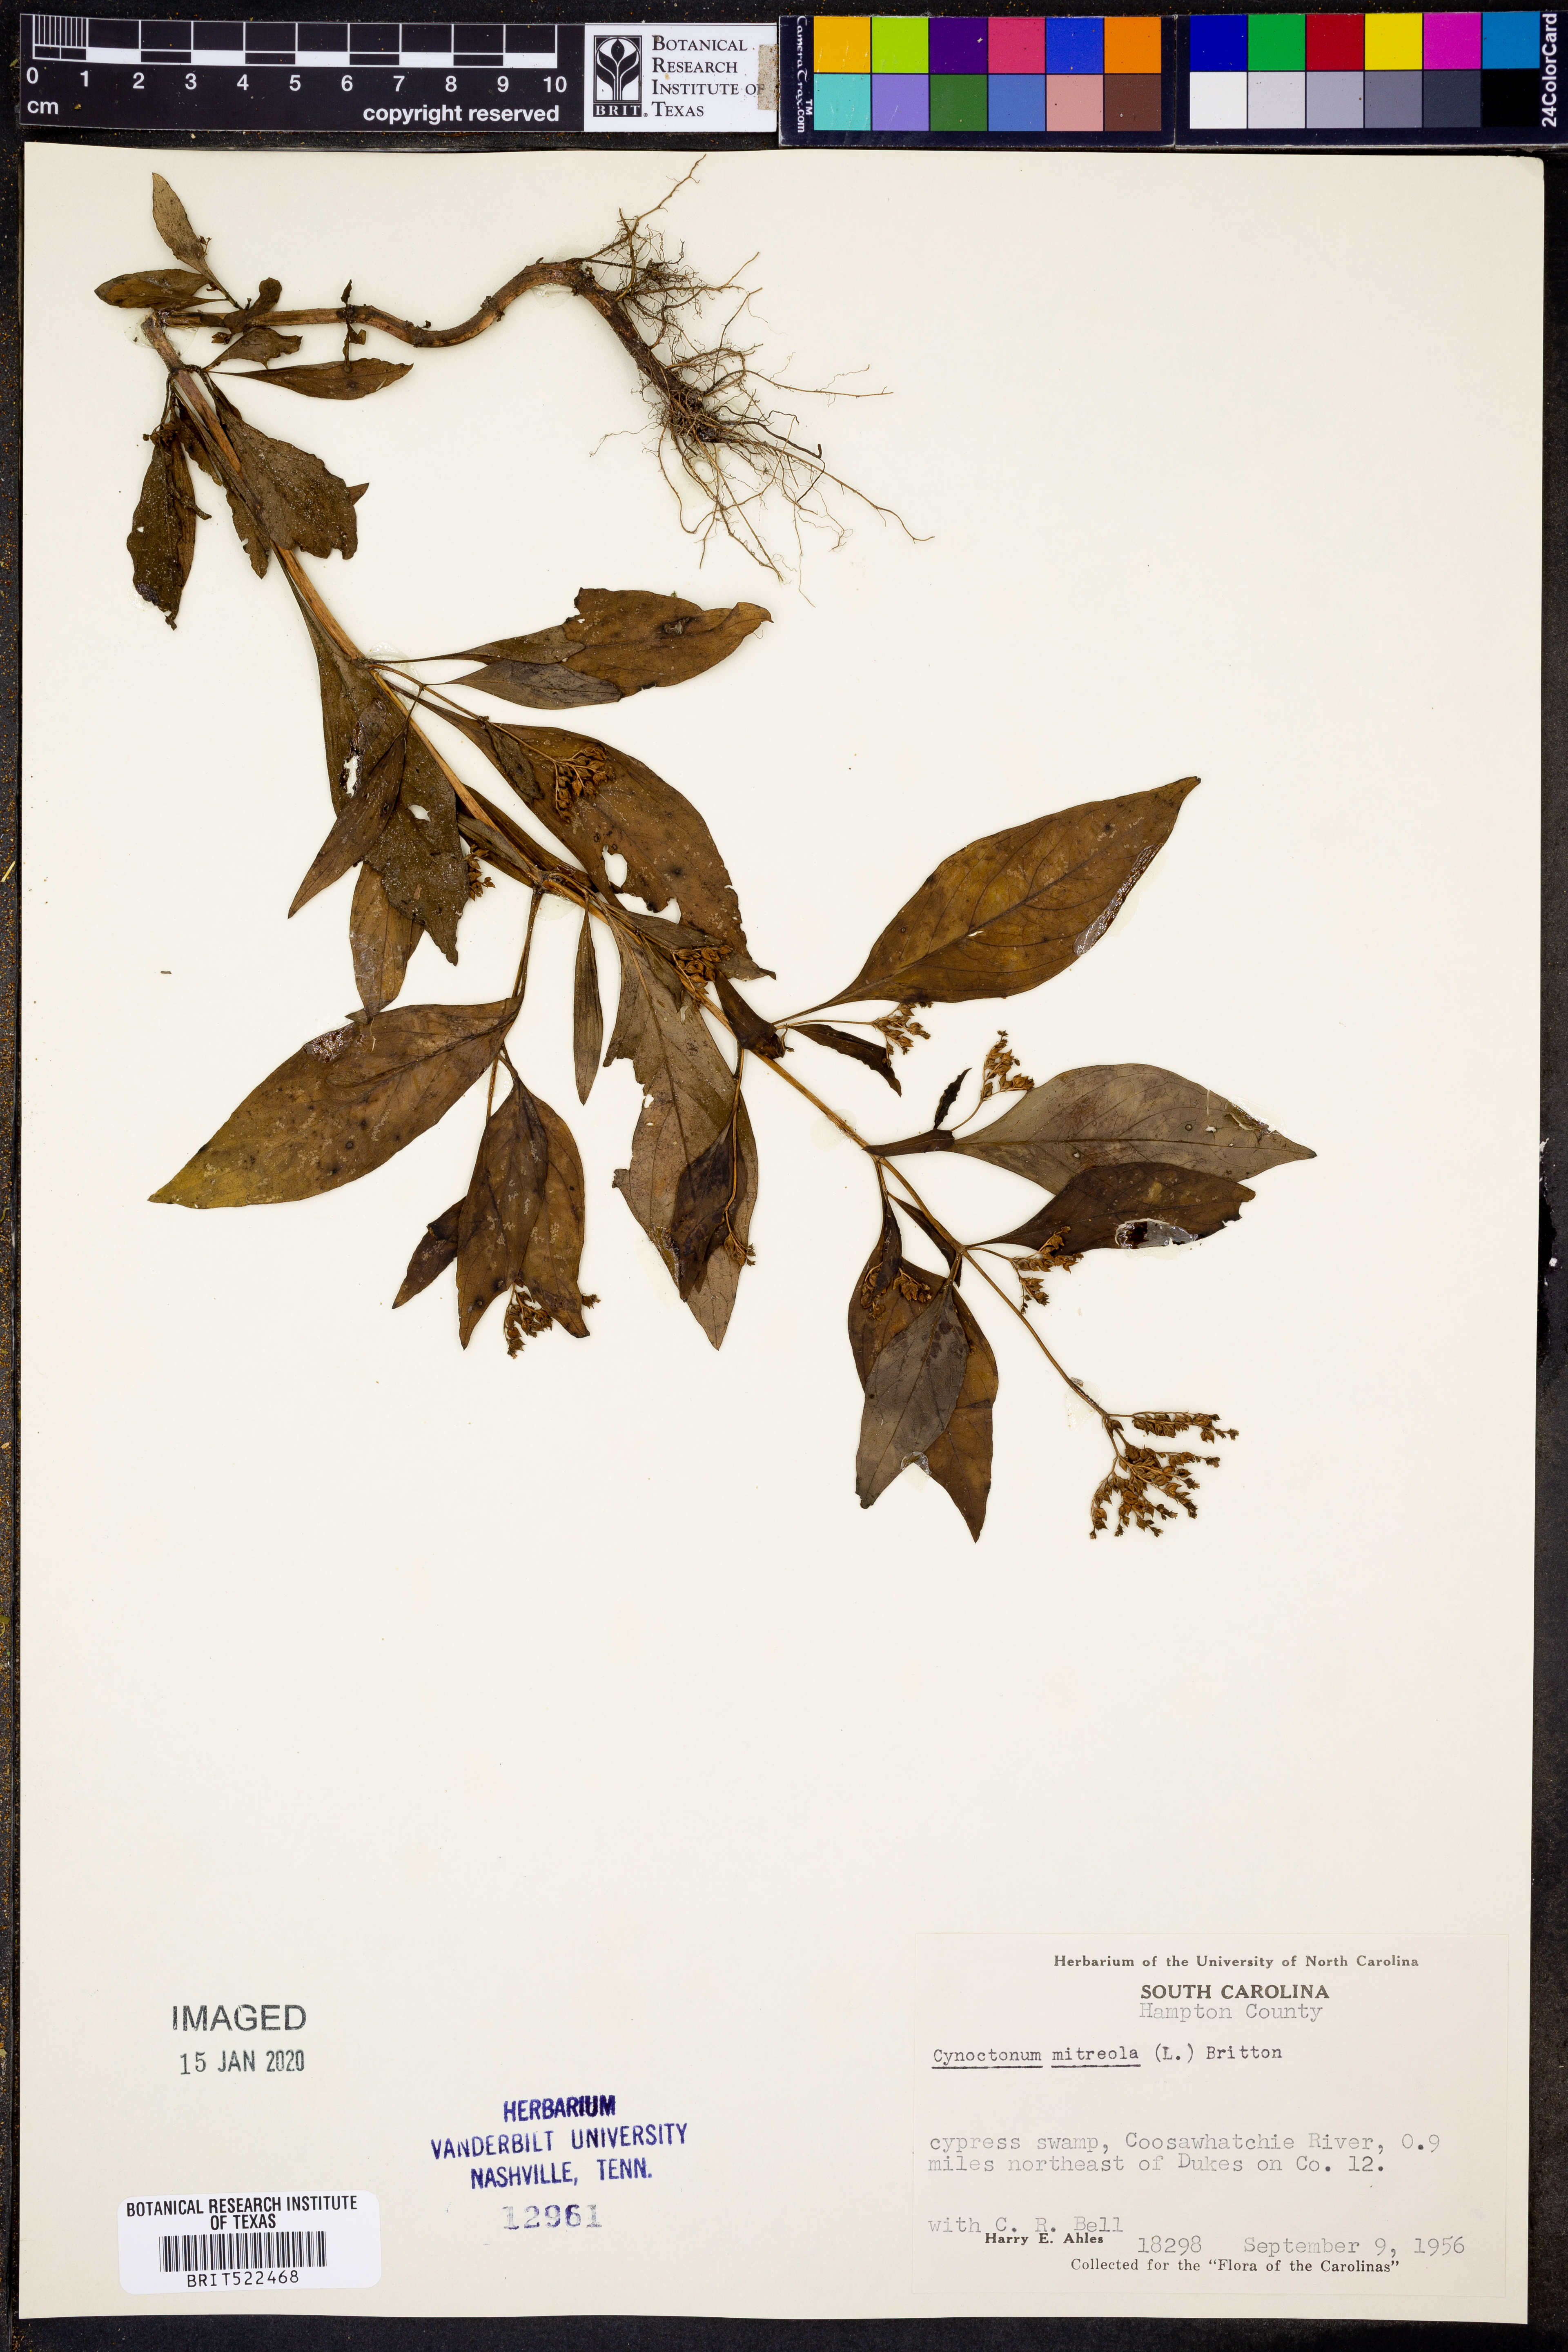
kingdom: Plantae
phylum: Tracheophyta
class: Magnoliopsida
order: Gentianales
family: Loganiaceae
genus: Mitreola
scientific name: Mitreola petiolata
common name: Lax hornpod
